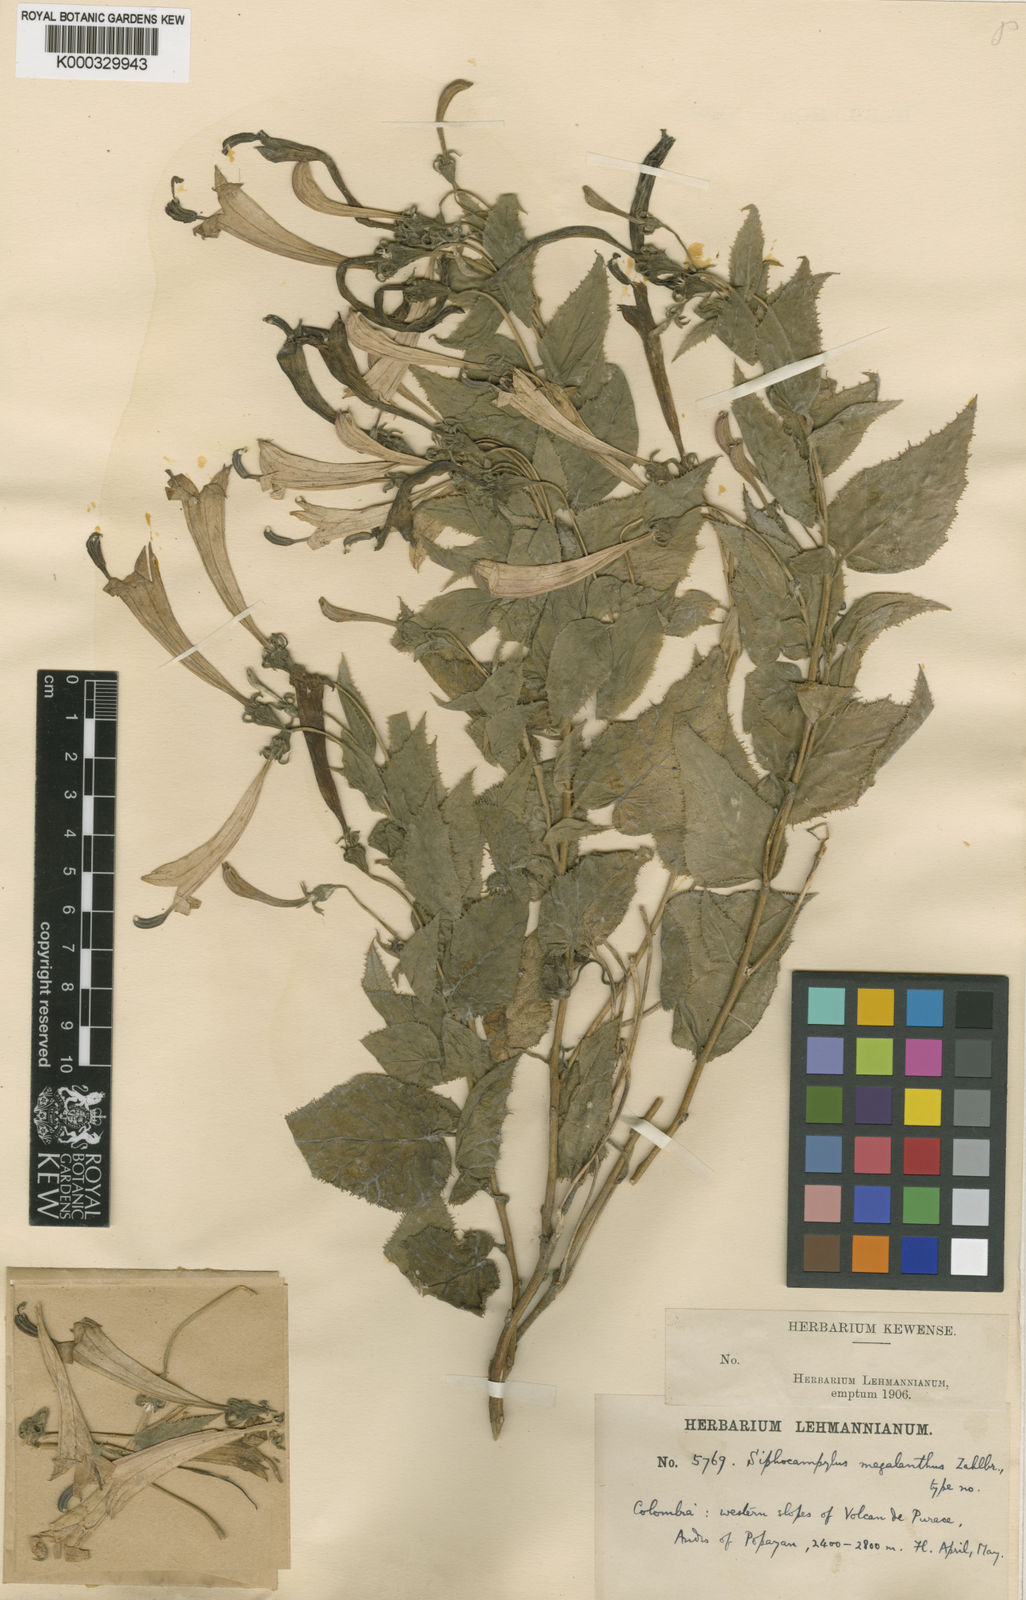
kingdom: Plantae
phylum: Tracheophyta
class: Magnoliopsida
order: Asterales
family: Campanulaceae
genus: Siphocampylus
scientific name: Siphocampylus megalanthus
